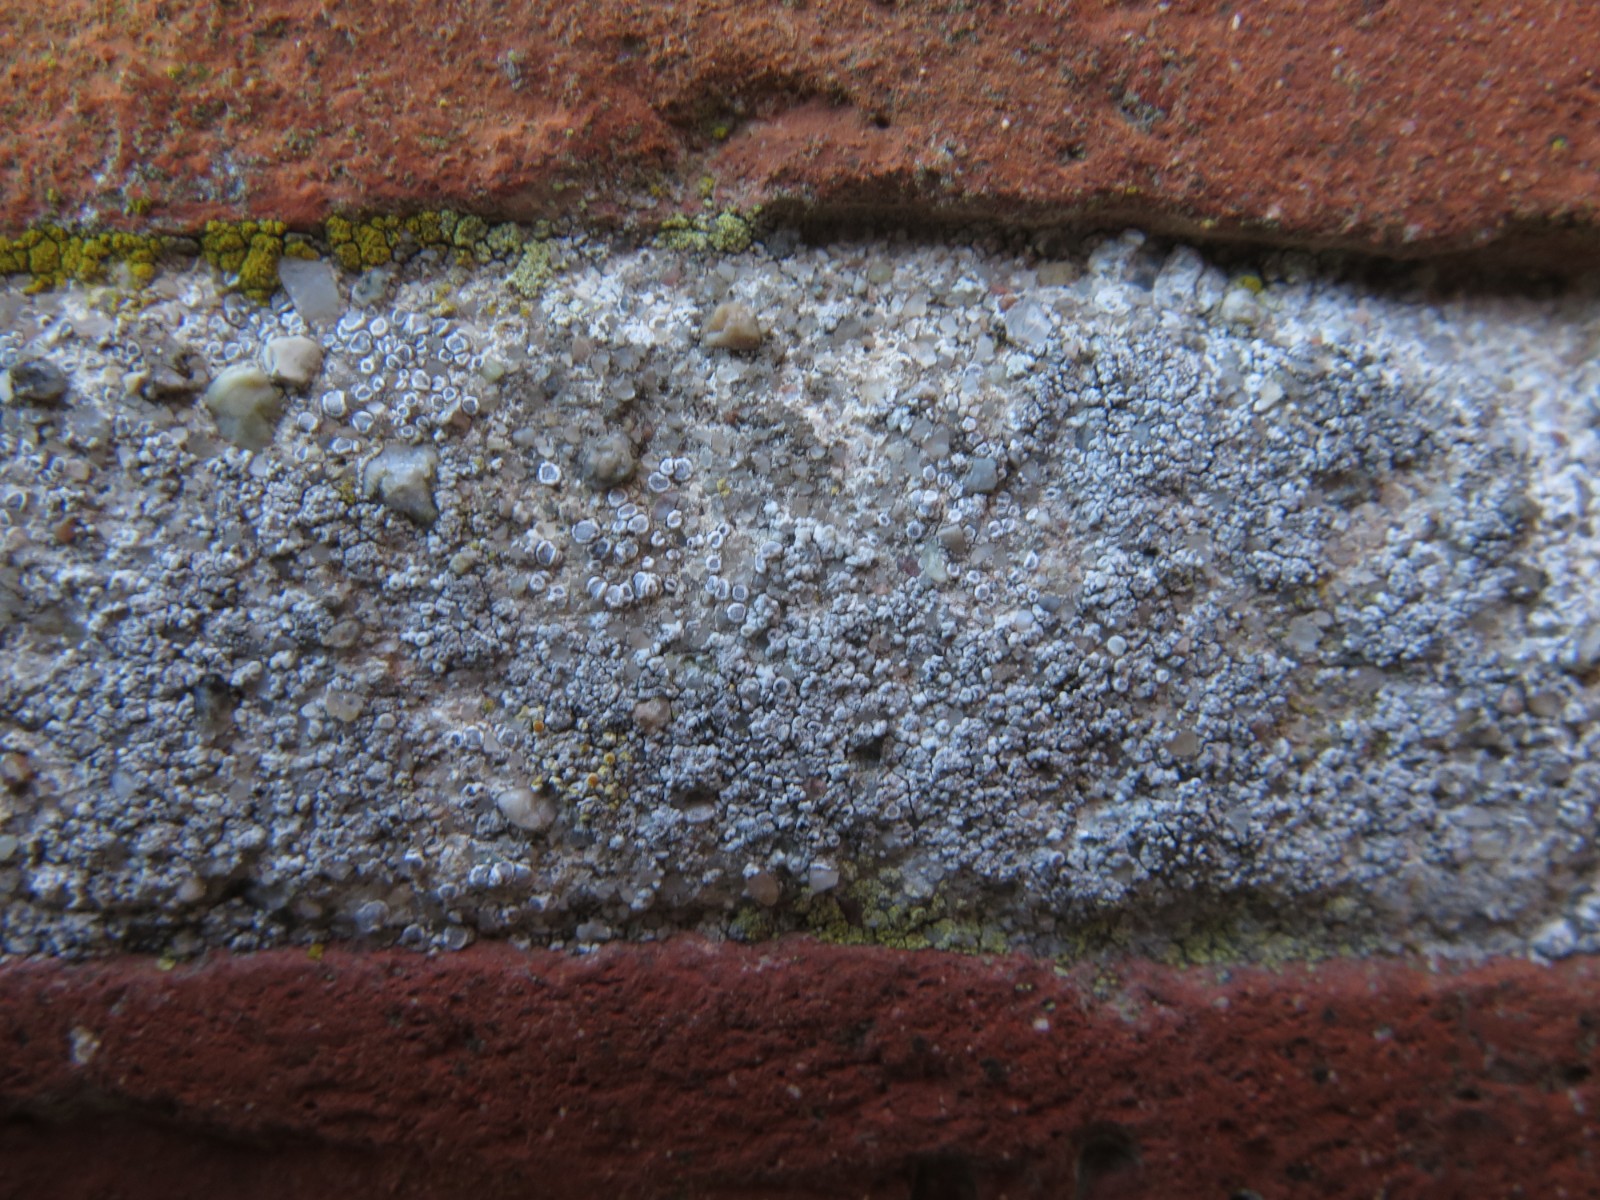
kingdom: Fungi
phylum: Ascomycota
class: Lecanoromycetes
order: Lecanorales
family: Lecanoraceae
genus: Polyozosia
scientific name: Polyozosia albescens
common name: cement-kantskivelav
